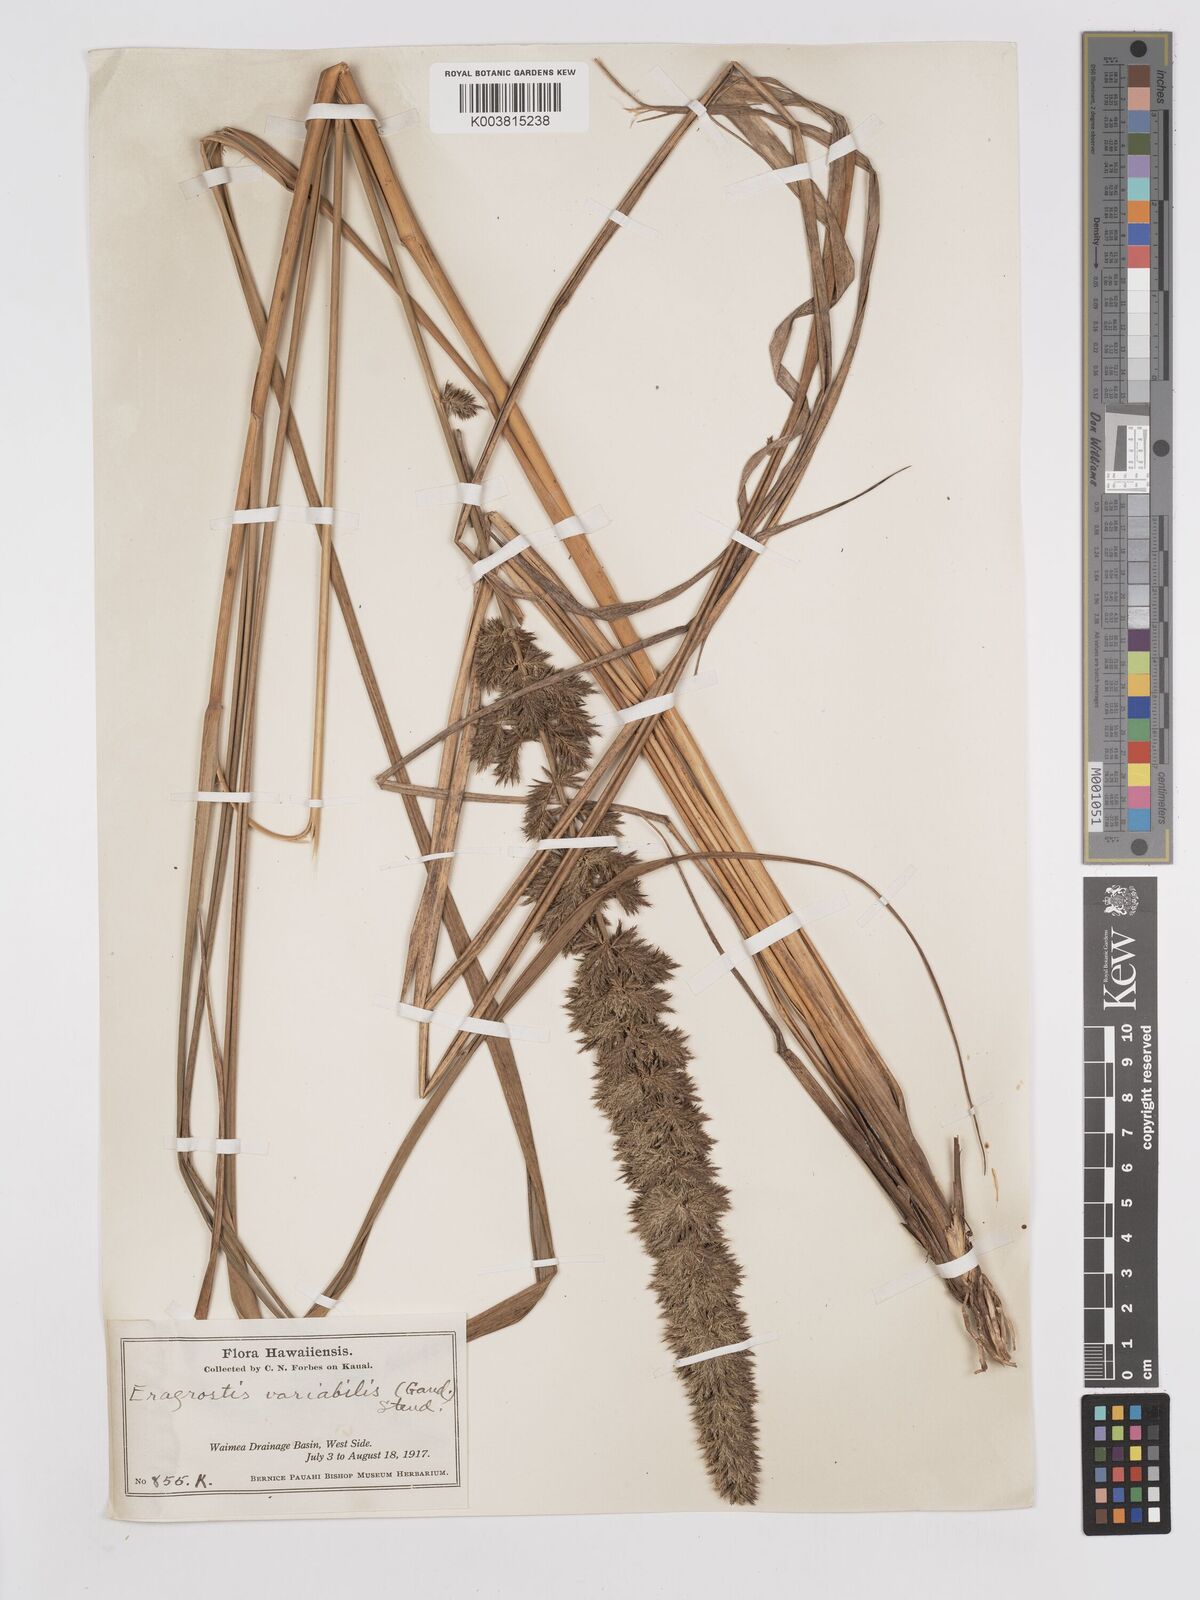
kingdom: Plantae
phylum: Tracheophyta
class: Liliopsida
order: Poales
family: Poaceae
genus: Eragrostis
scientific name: Eragrostis variabilis
